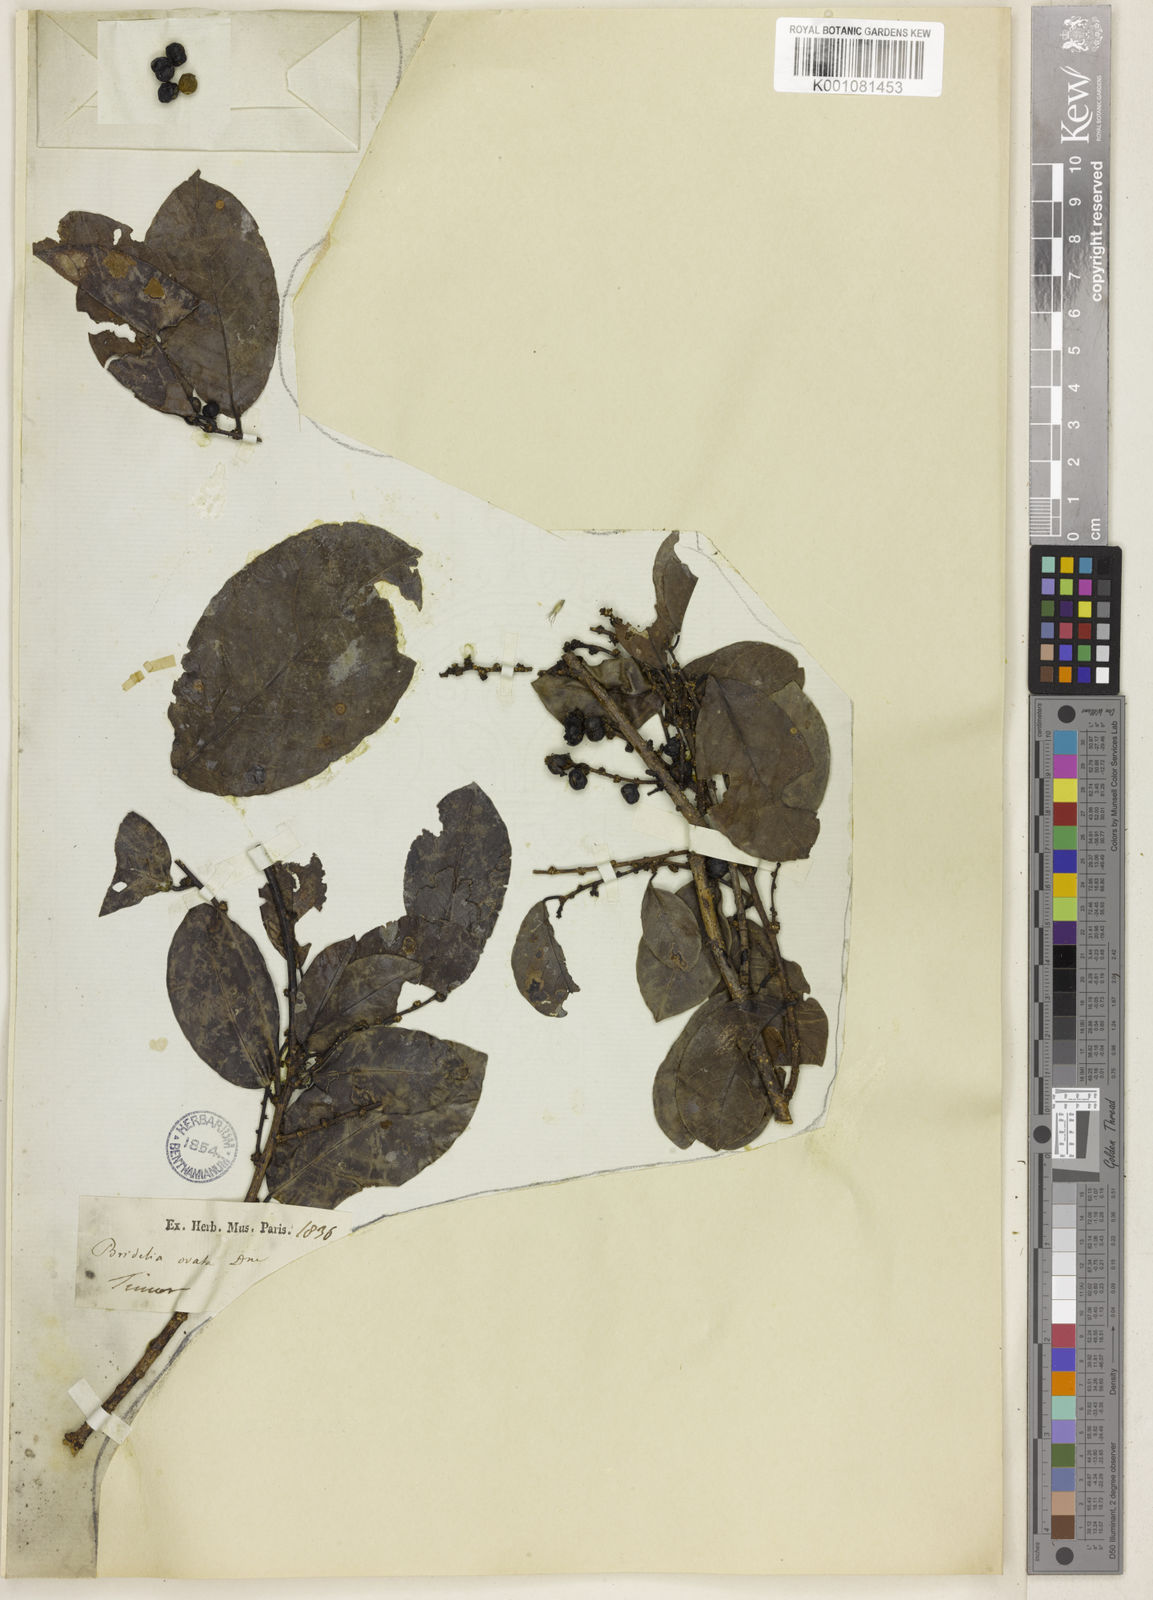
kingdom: Plantae
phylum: Tracheophyta
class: Magnoliopsida
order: Malpighiales
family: Phyllanthaceae
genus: Bridelia
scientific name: Bridelia ovata
